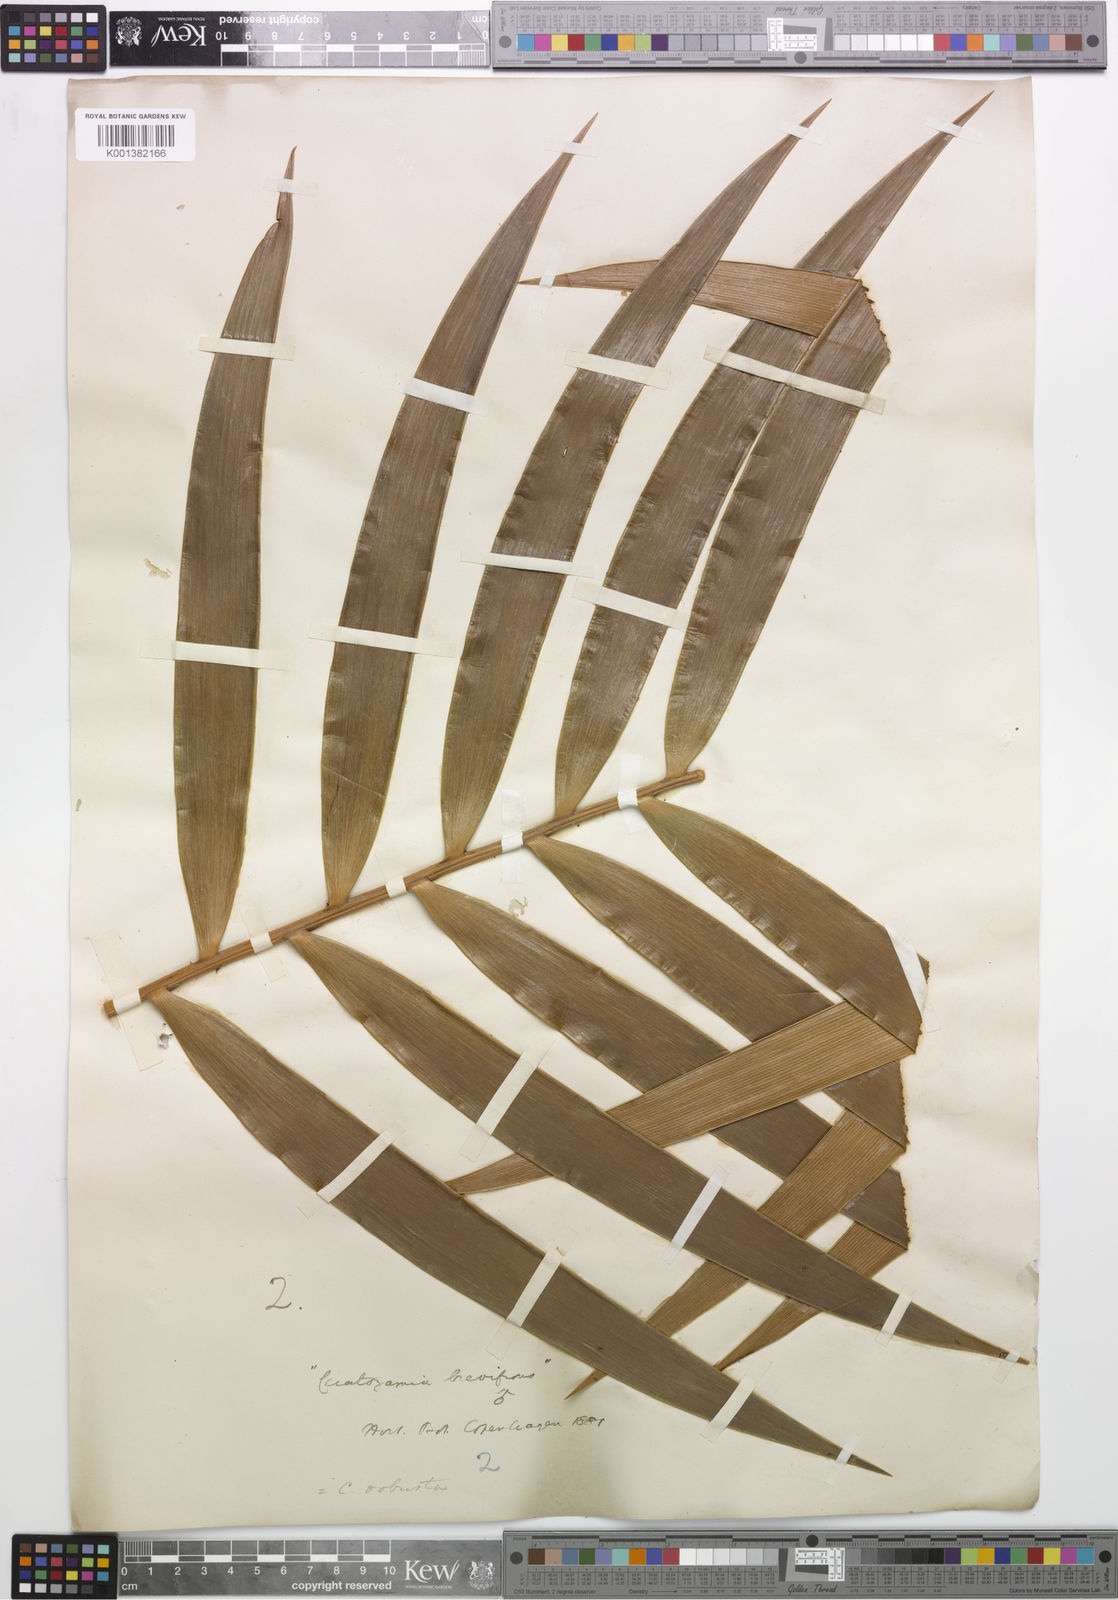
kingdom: Plantae
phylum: Tracheophyta
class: Cycadopsida
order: Cycadales
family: Zamiaceae
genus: Ceratozamia
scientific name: Ceratozamia robusta
